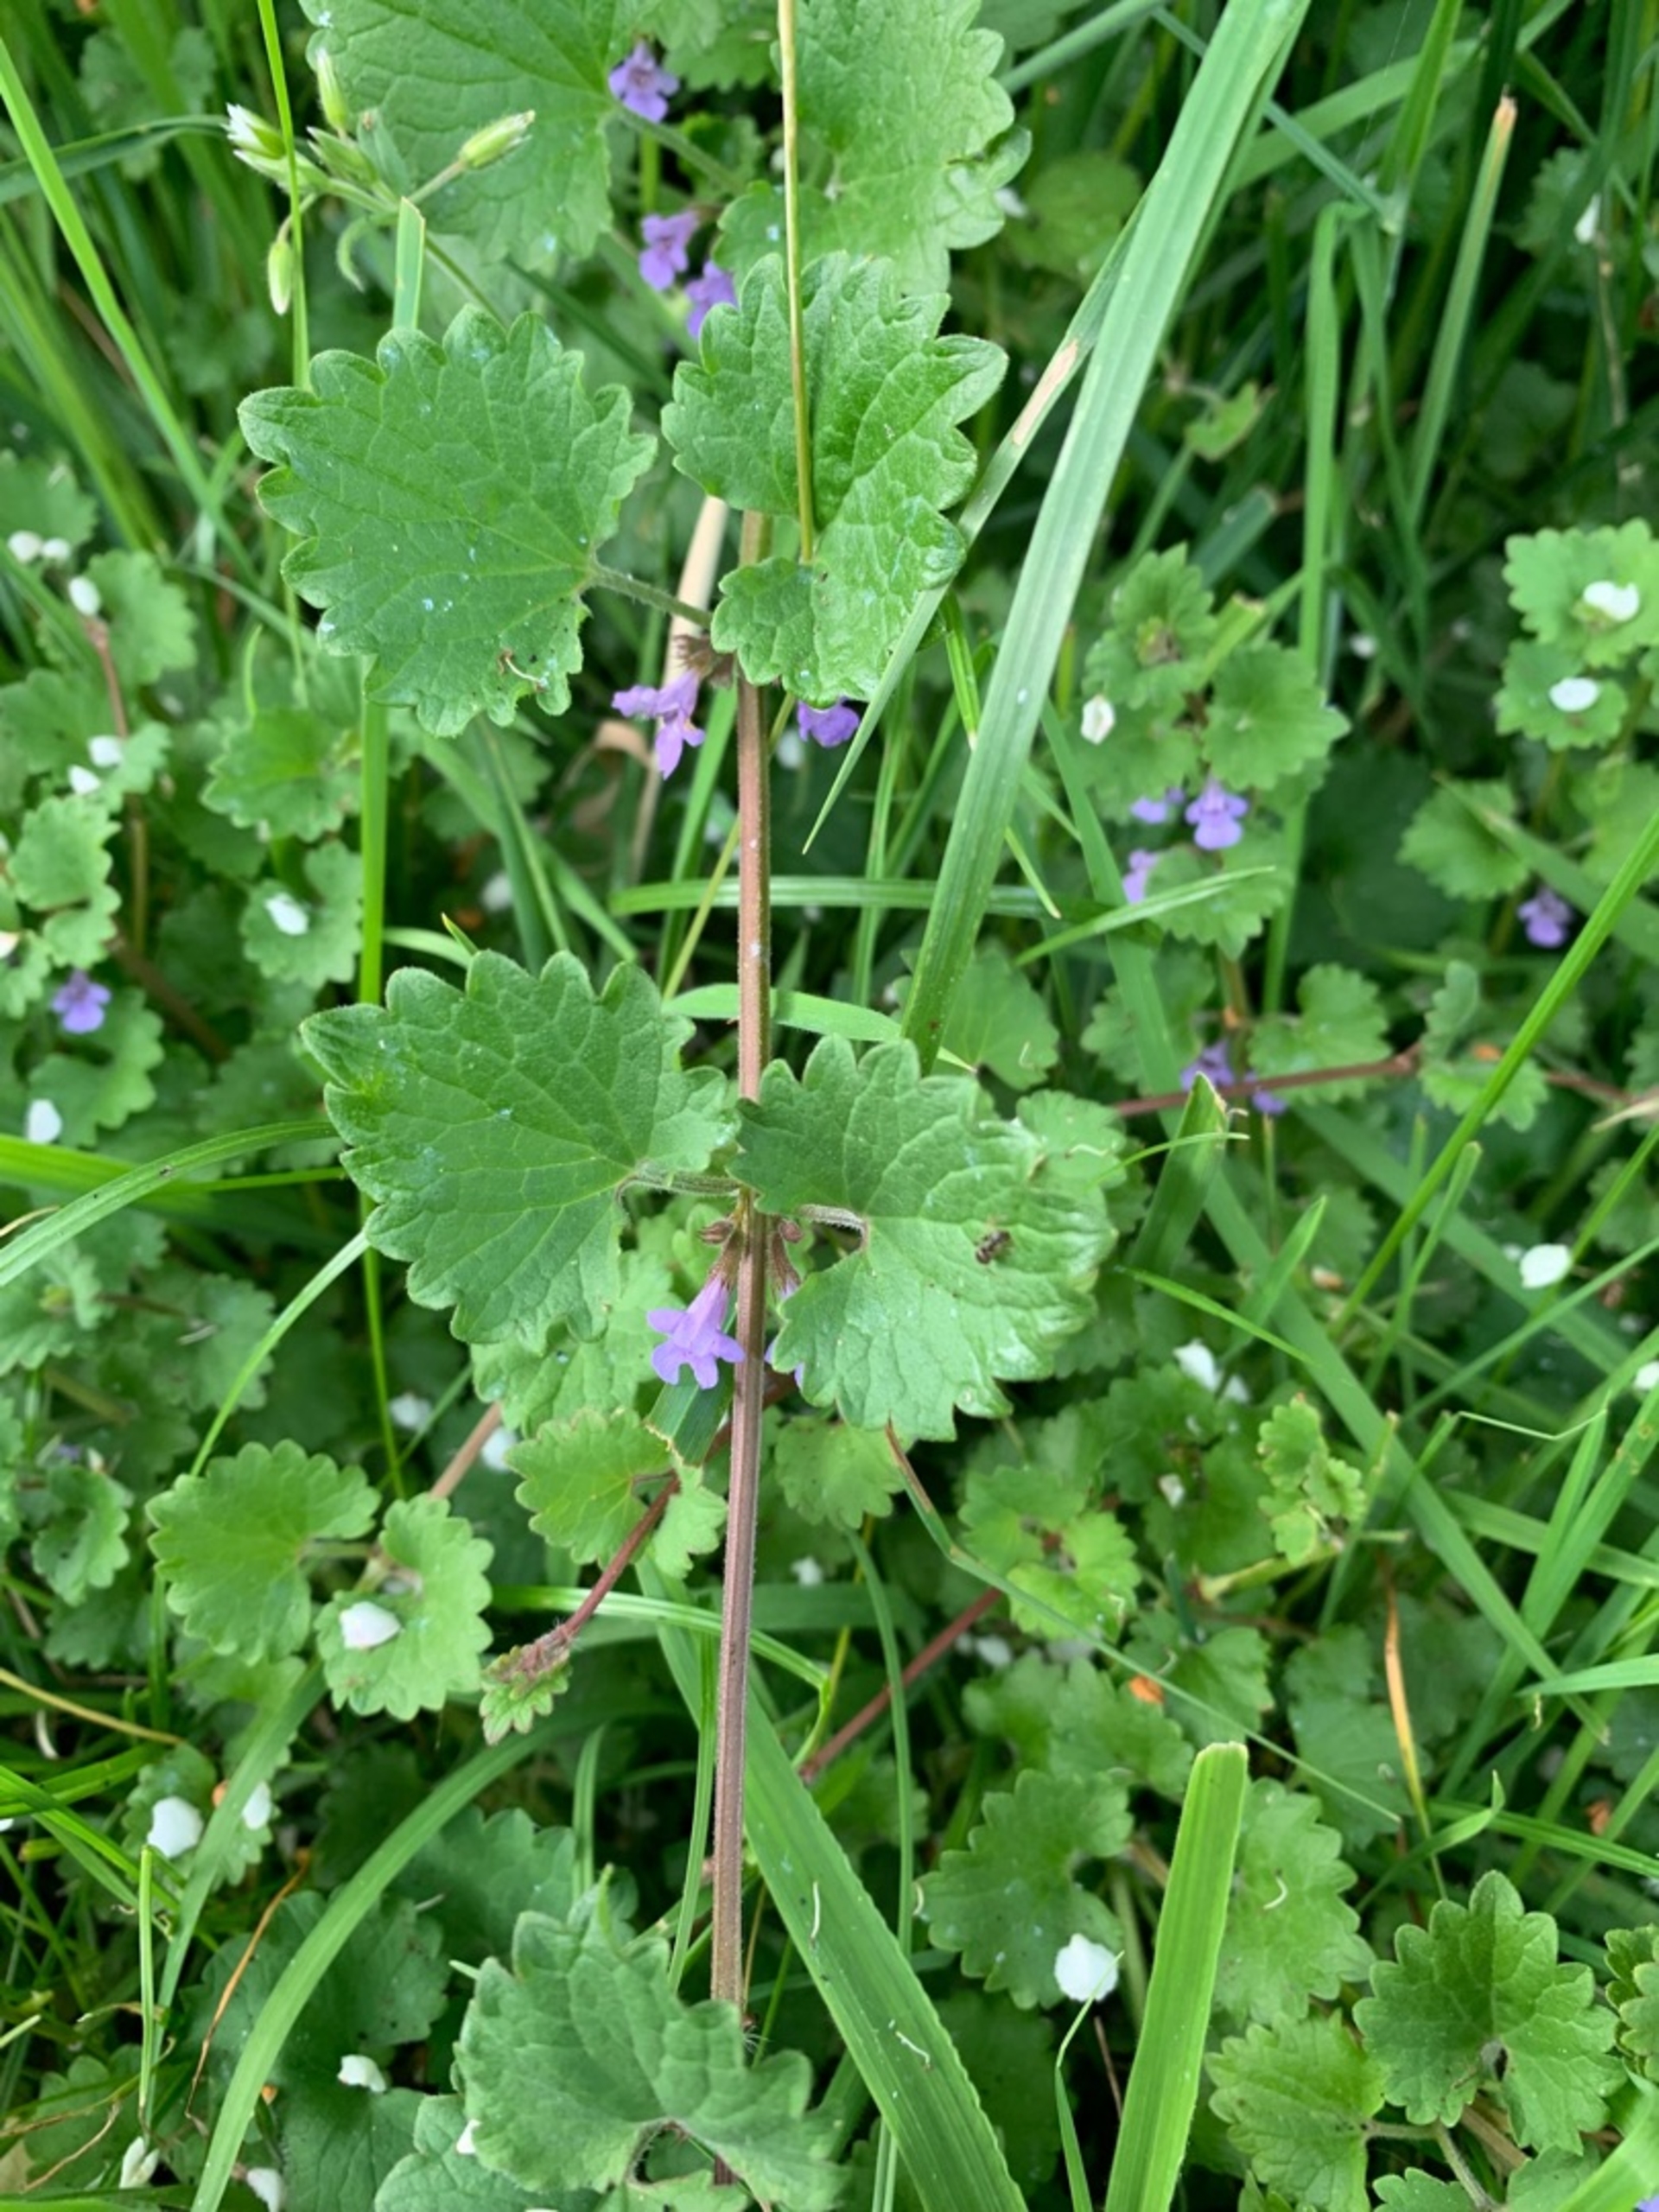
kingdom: Plantae
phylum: Tracheophyta
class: Magnoliopsida
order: Lamiales
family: Lamiaceae
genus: Glechoma
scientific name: Glechoma hederacea
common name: Korsknap
